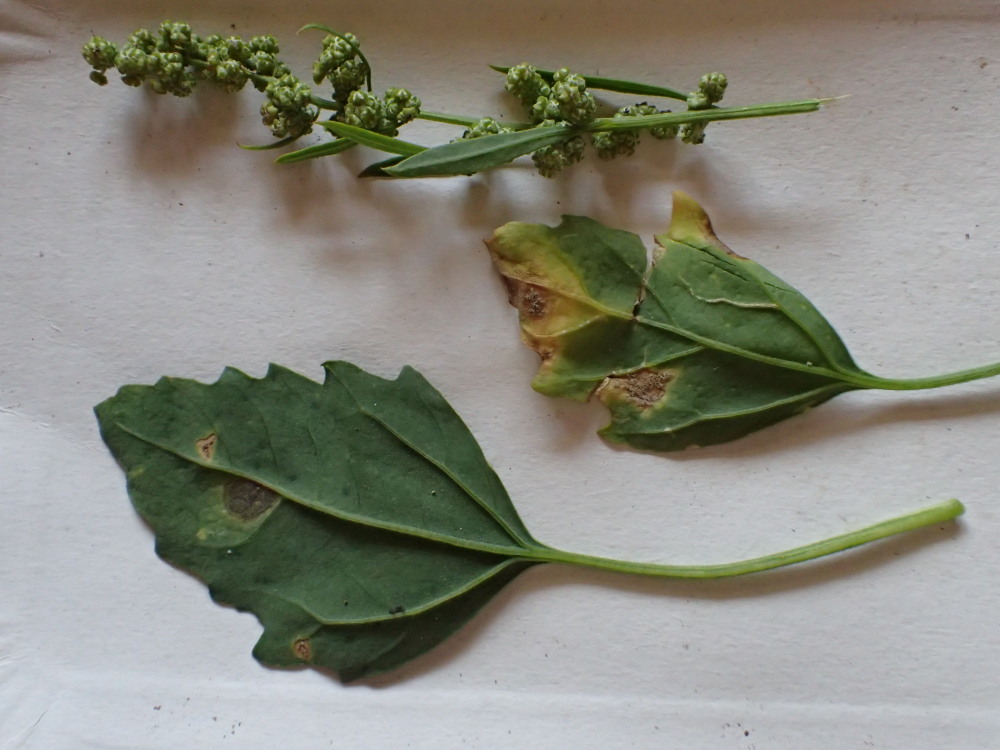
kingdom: Chromista
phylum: Oomycota
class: Peronosporea
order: Peronosporales
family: Peronosporaceae
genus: Peronospora
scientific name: Peronospora farinosa
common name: Beet downy mildew
